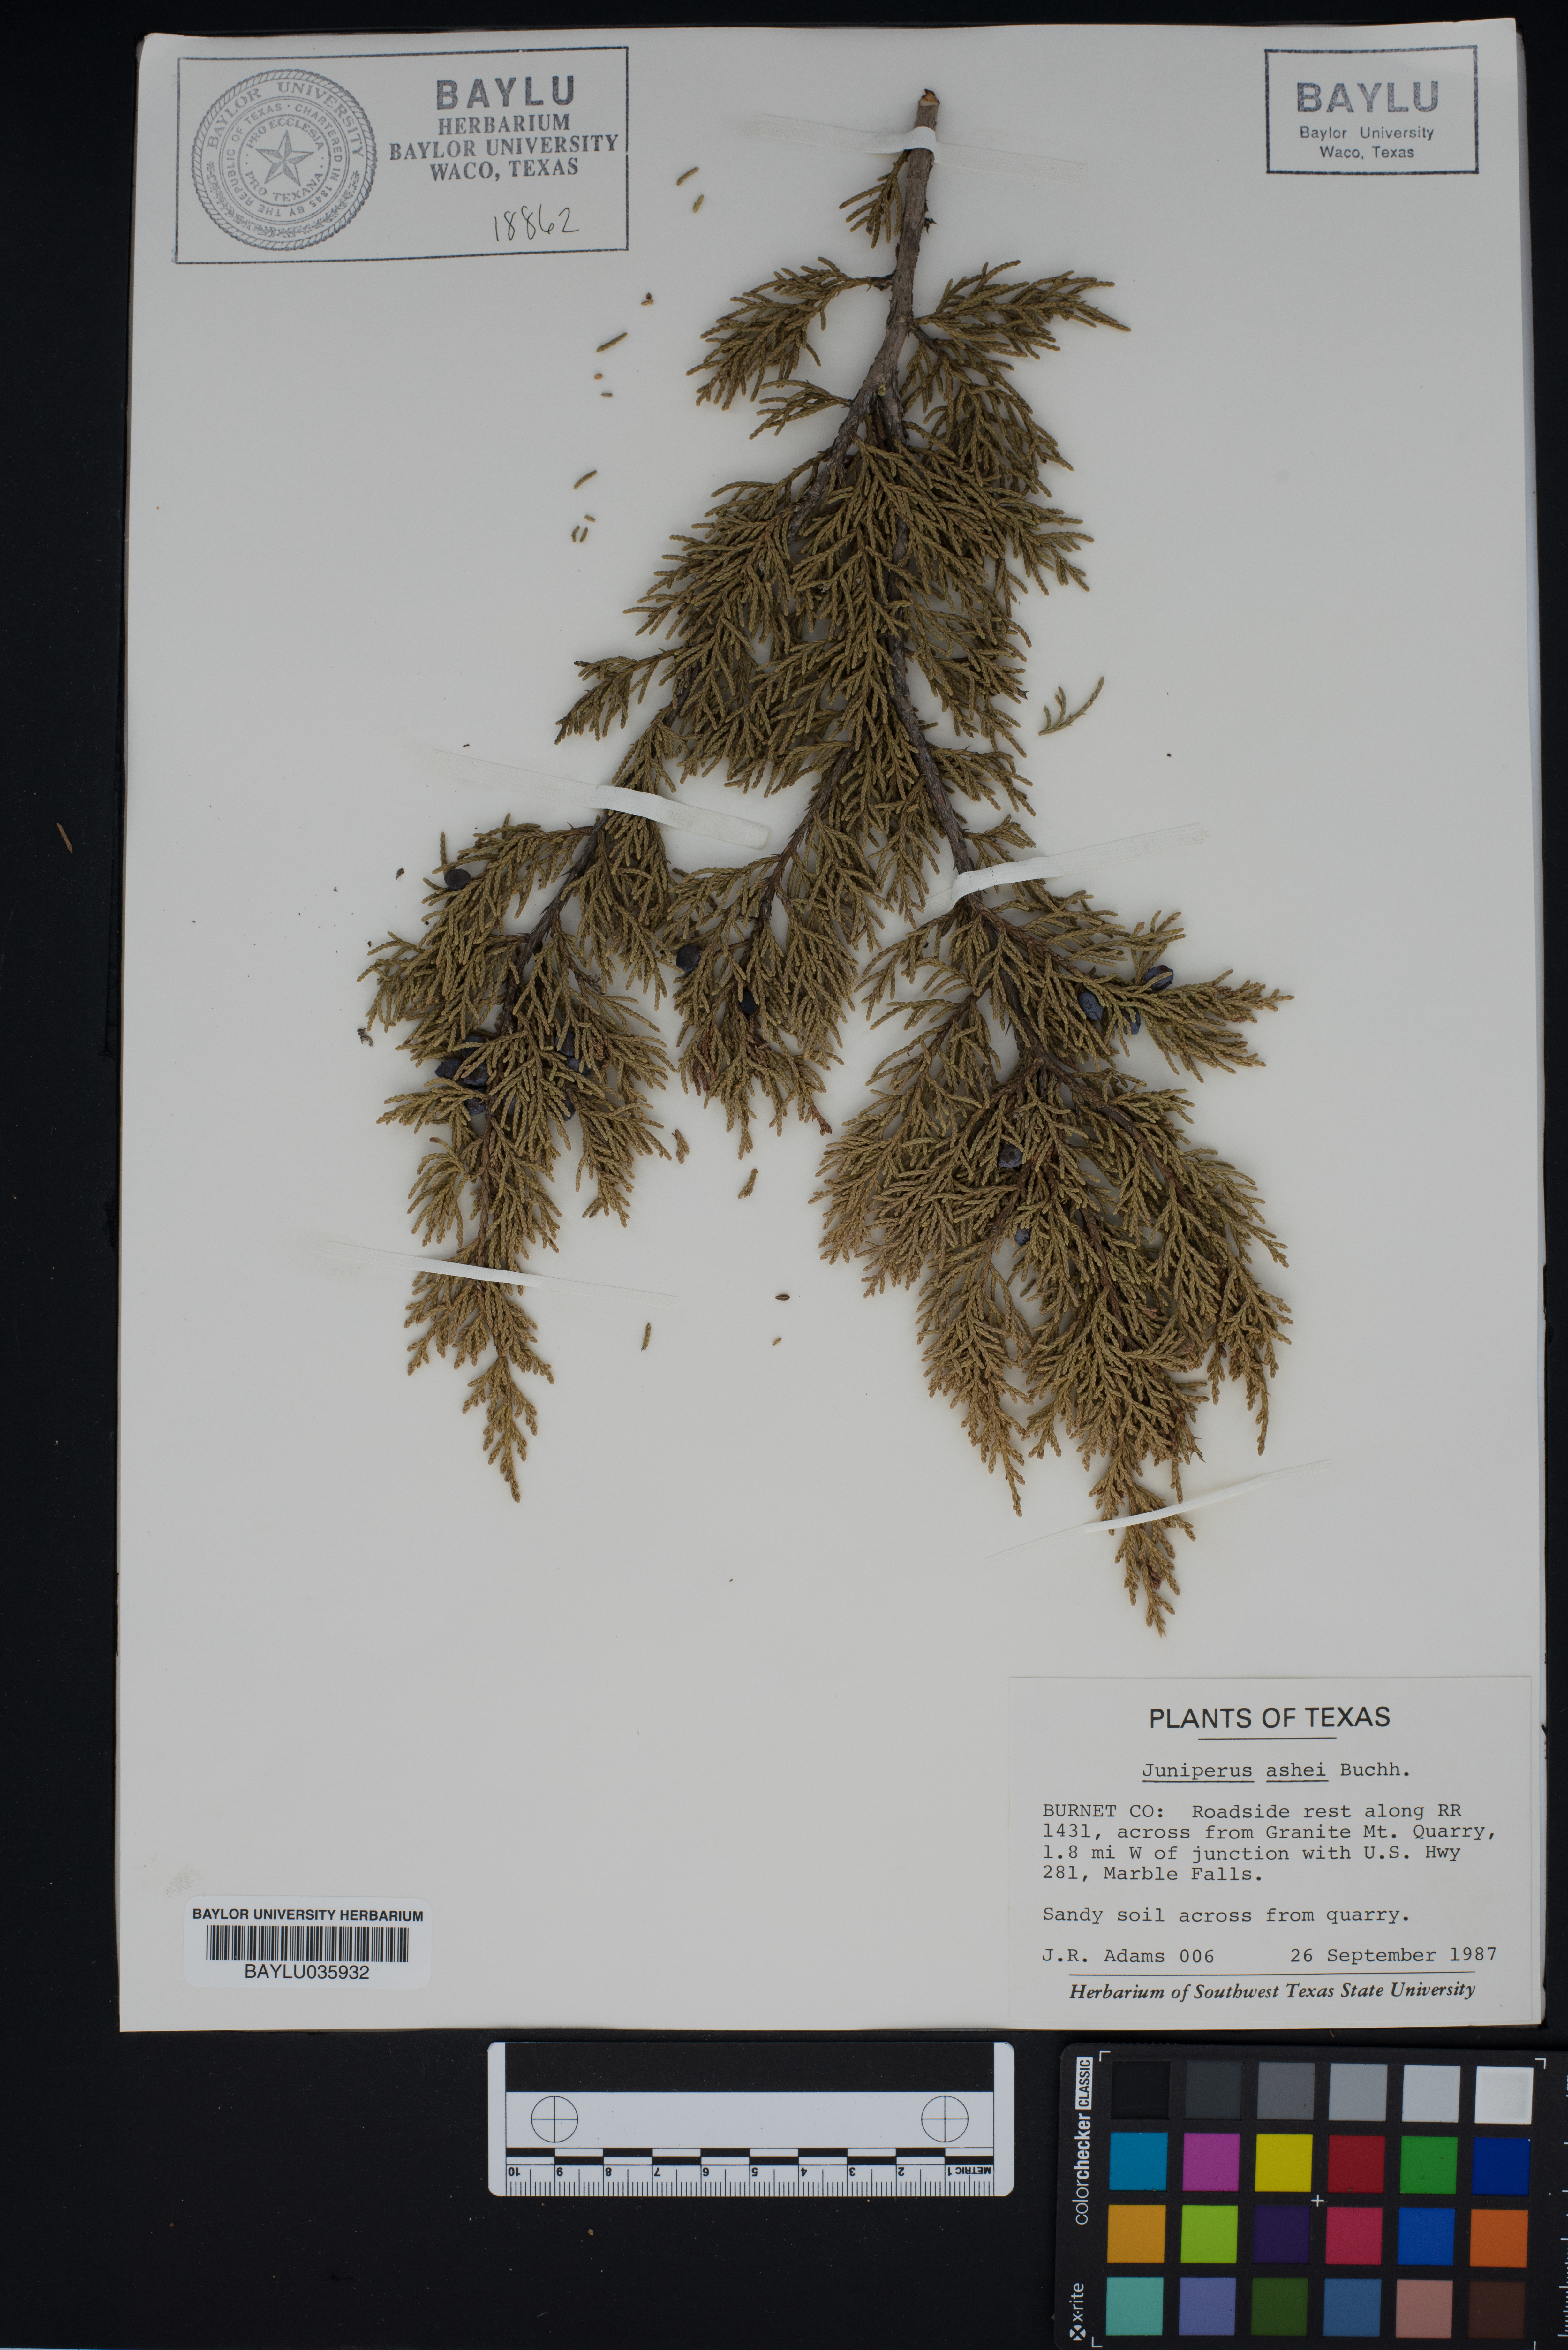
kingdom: Plantae
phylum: Tracheophyta
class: Pinopsida
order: Pinales
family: Cupressaceae
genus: Juniperus
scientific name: Juniperus ashei
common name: Mexican juniper
